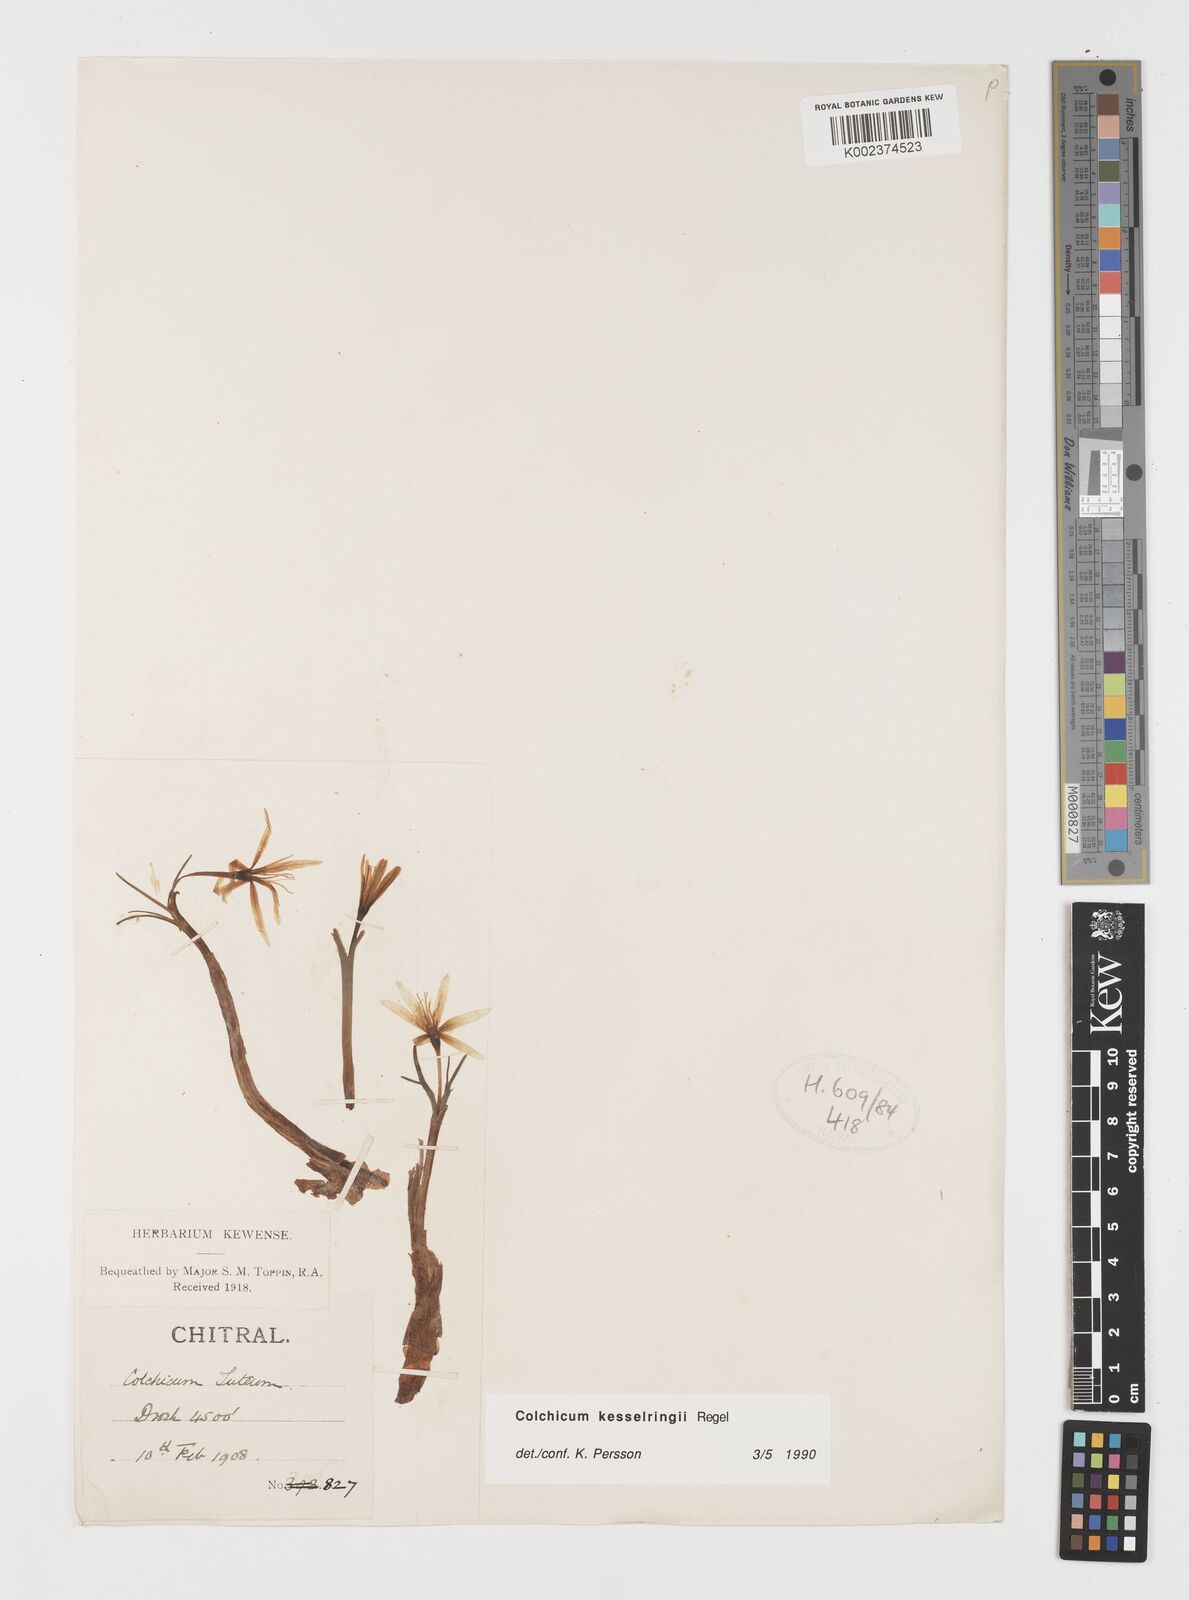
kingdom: Plantae
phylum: Tracheophyta
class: Liliopsida
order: Liliales
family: Colchicaceae
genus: Colchicum
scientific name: Colchicum kesselringii
